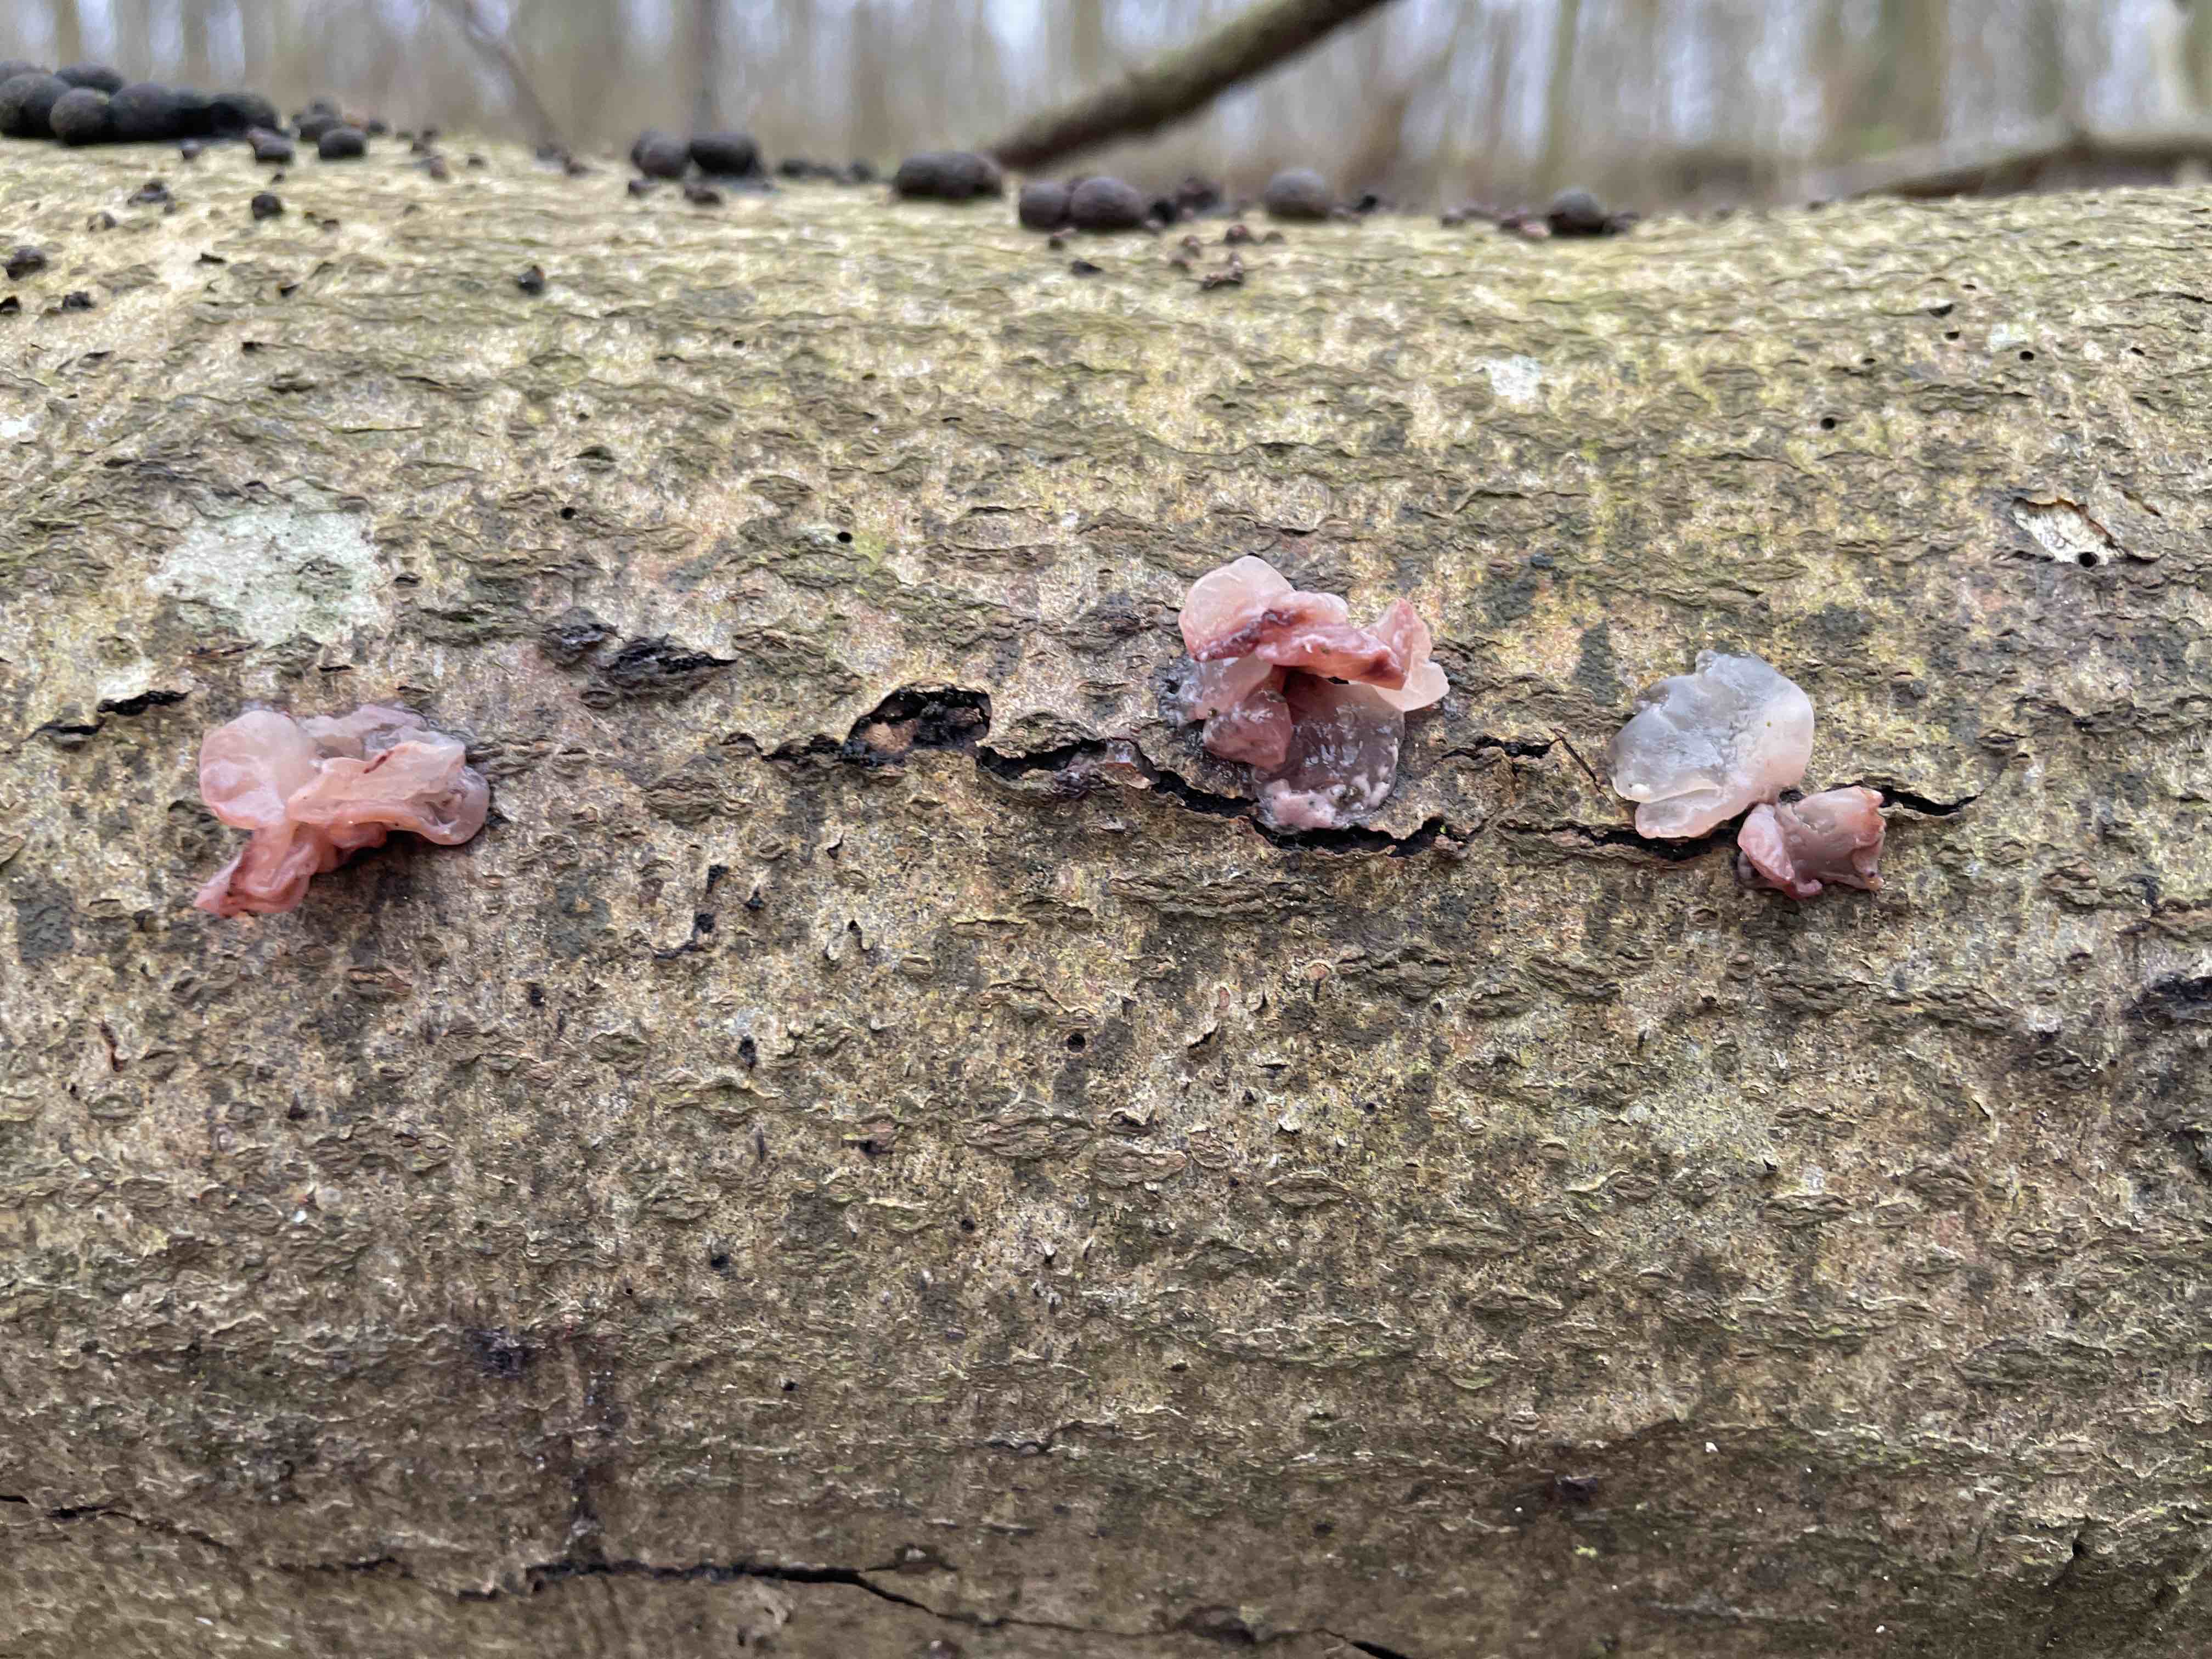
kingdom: Fungi
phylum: Ascomycota
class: Leotiomycetes
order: Helotiales
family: Gelatinodiscaceae
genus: Ascocoryne
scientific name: Ascocoryne
